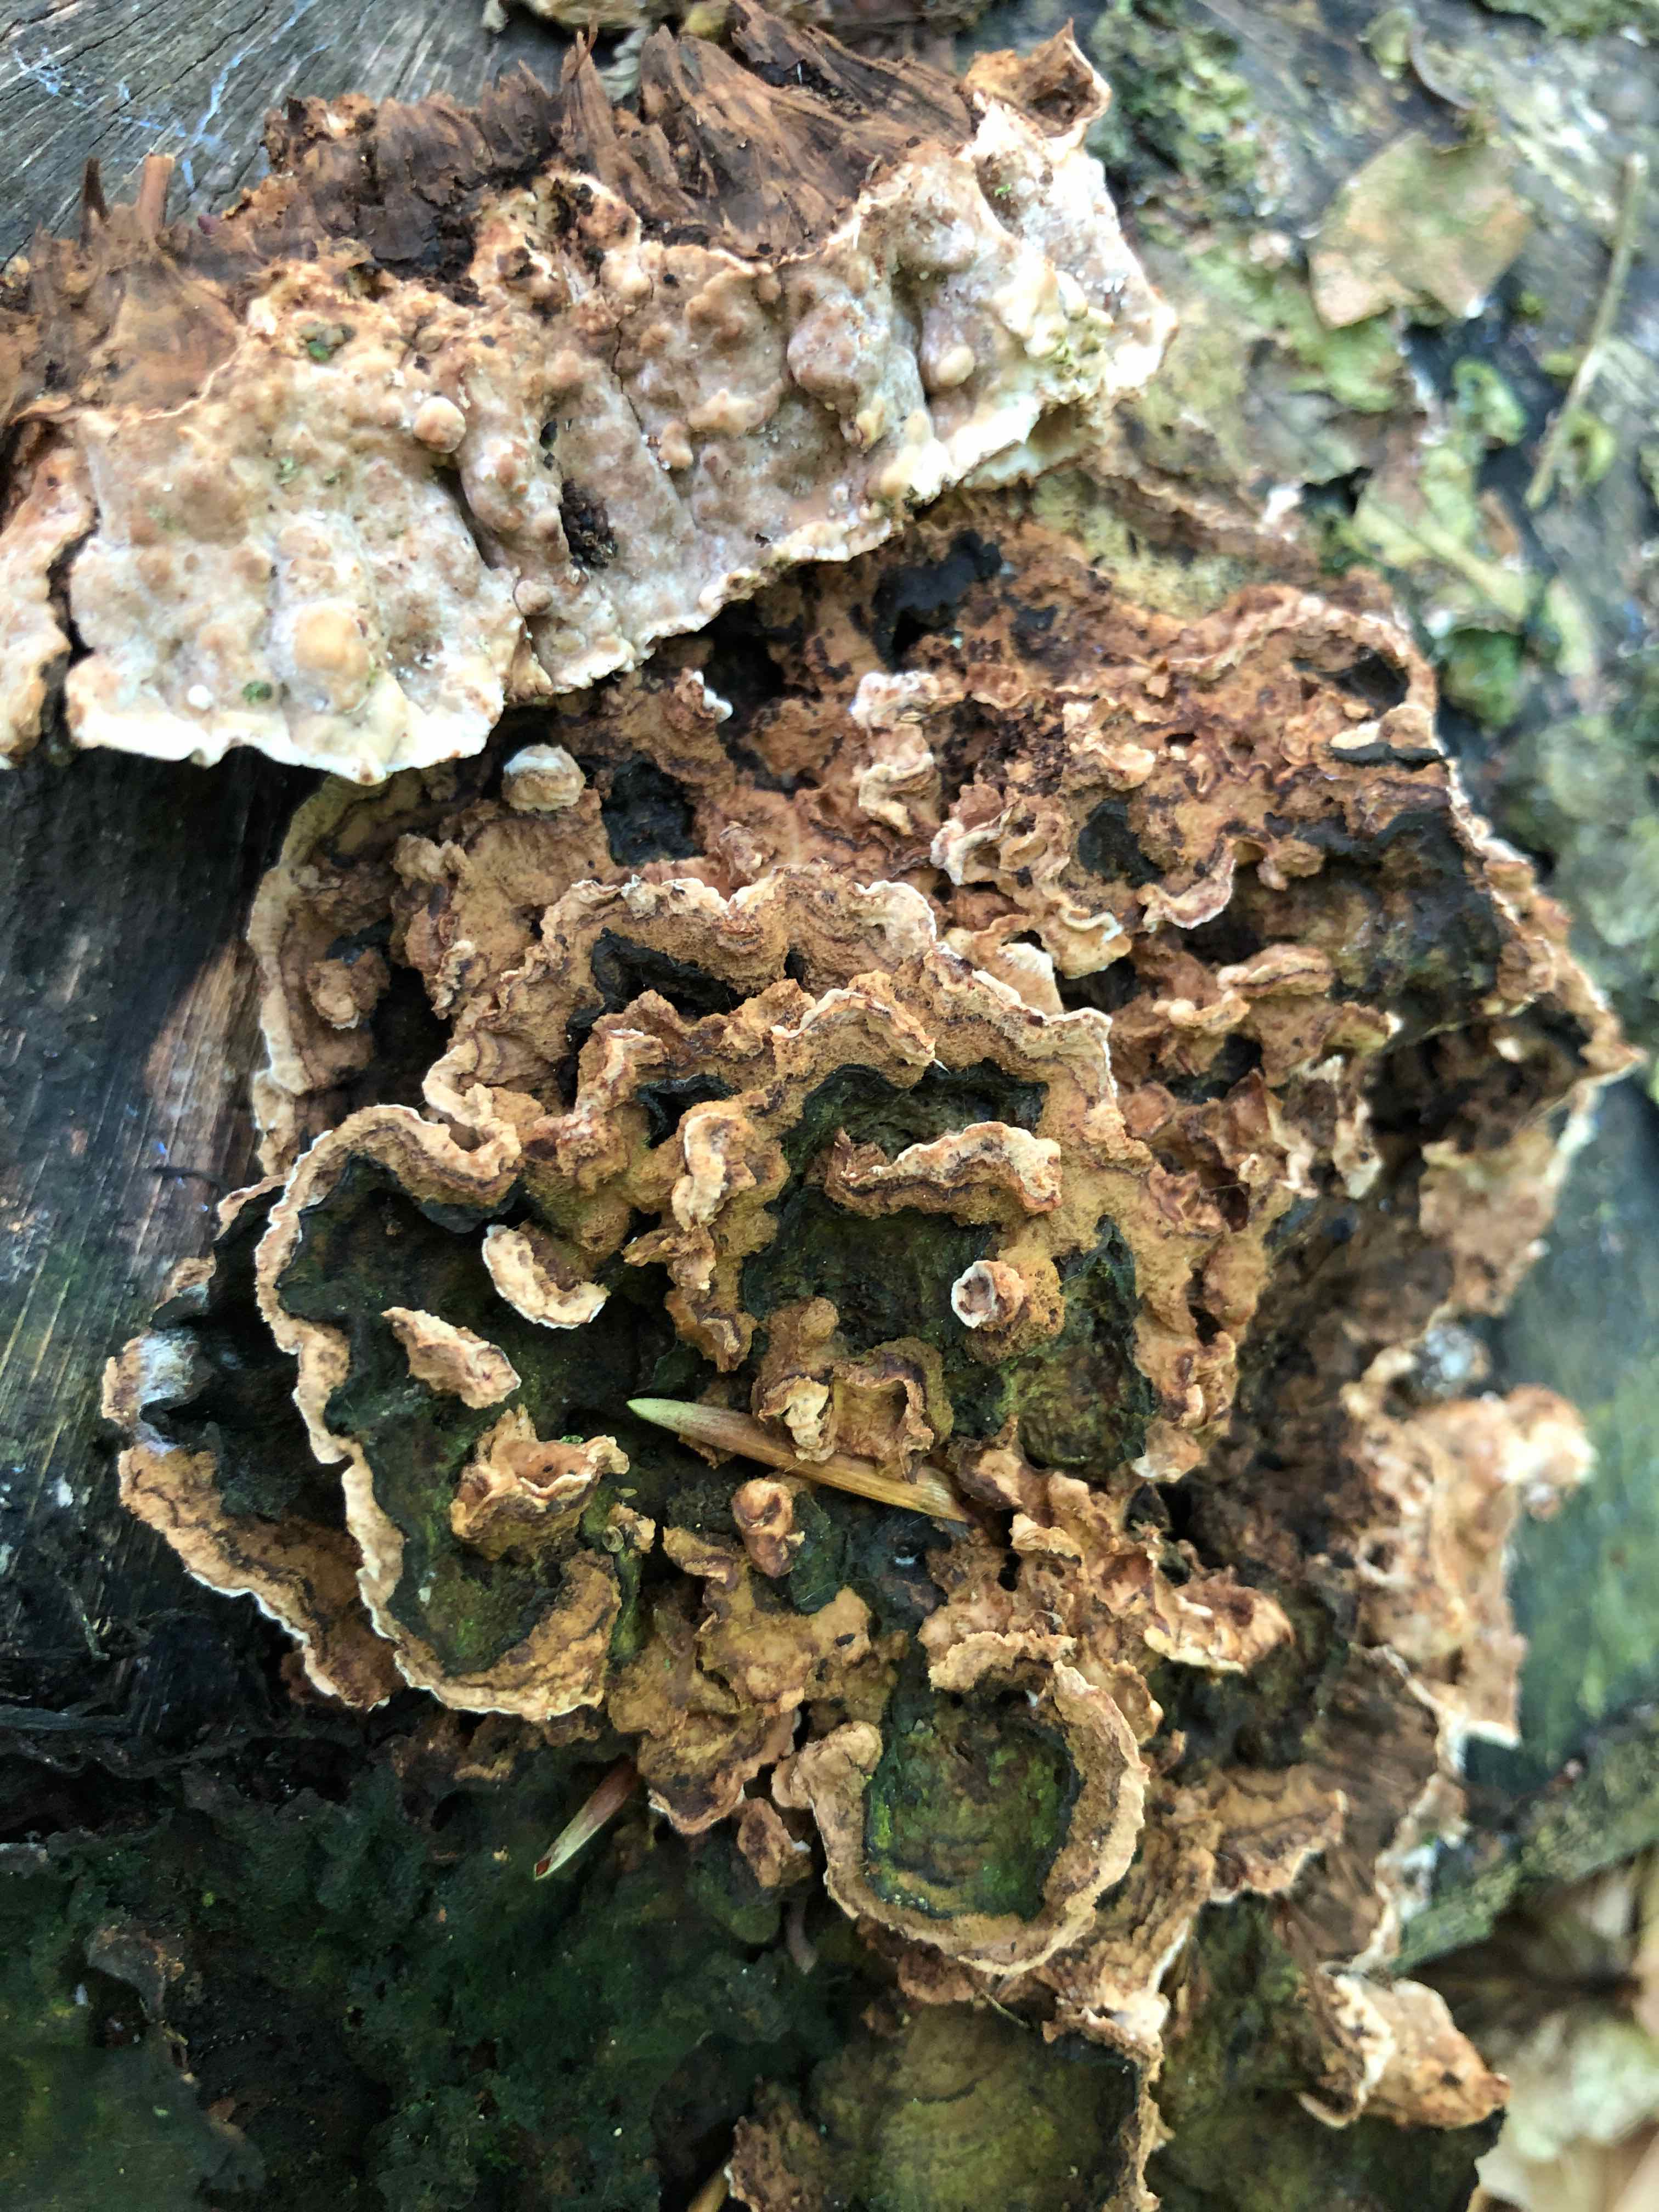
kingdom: Fungi
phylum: Basidiomycota
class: Agaricomycetes
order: Russulales
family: Hericiaceae
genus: Laxitextum
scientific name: Laxitextum bicolor
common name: tvefarvet filtskind
